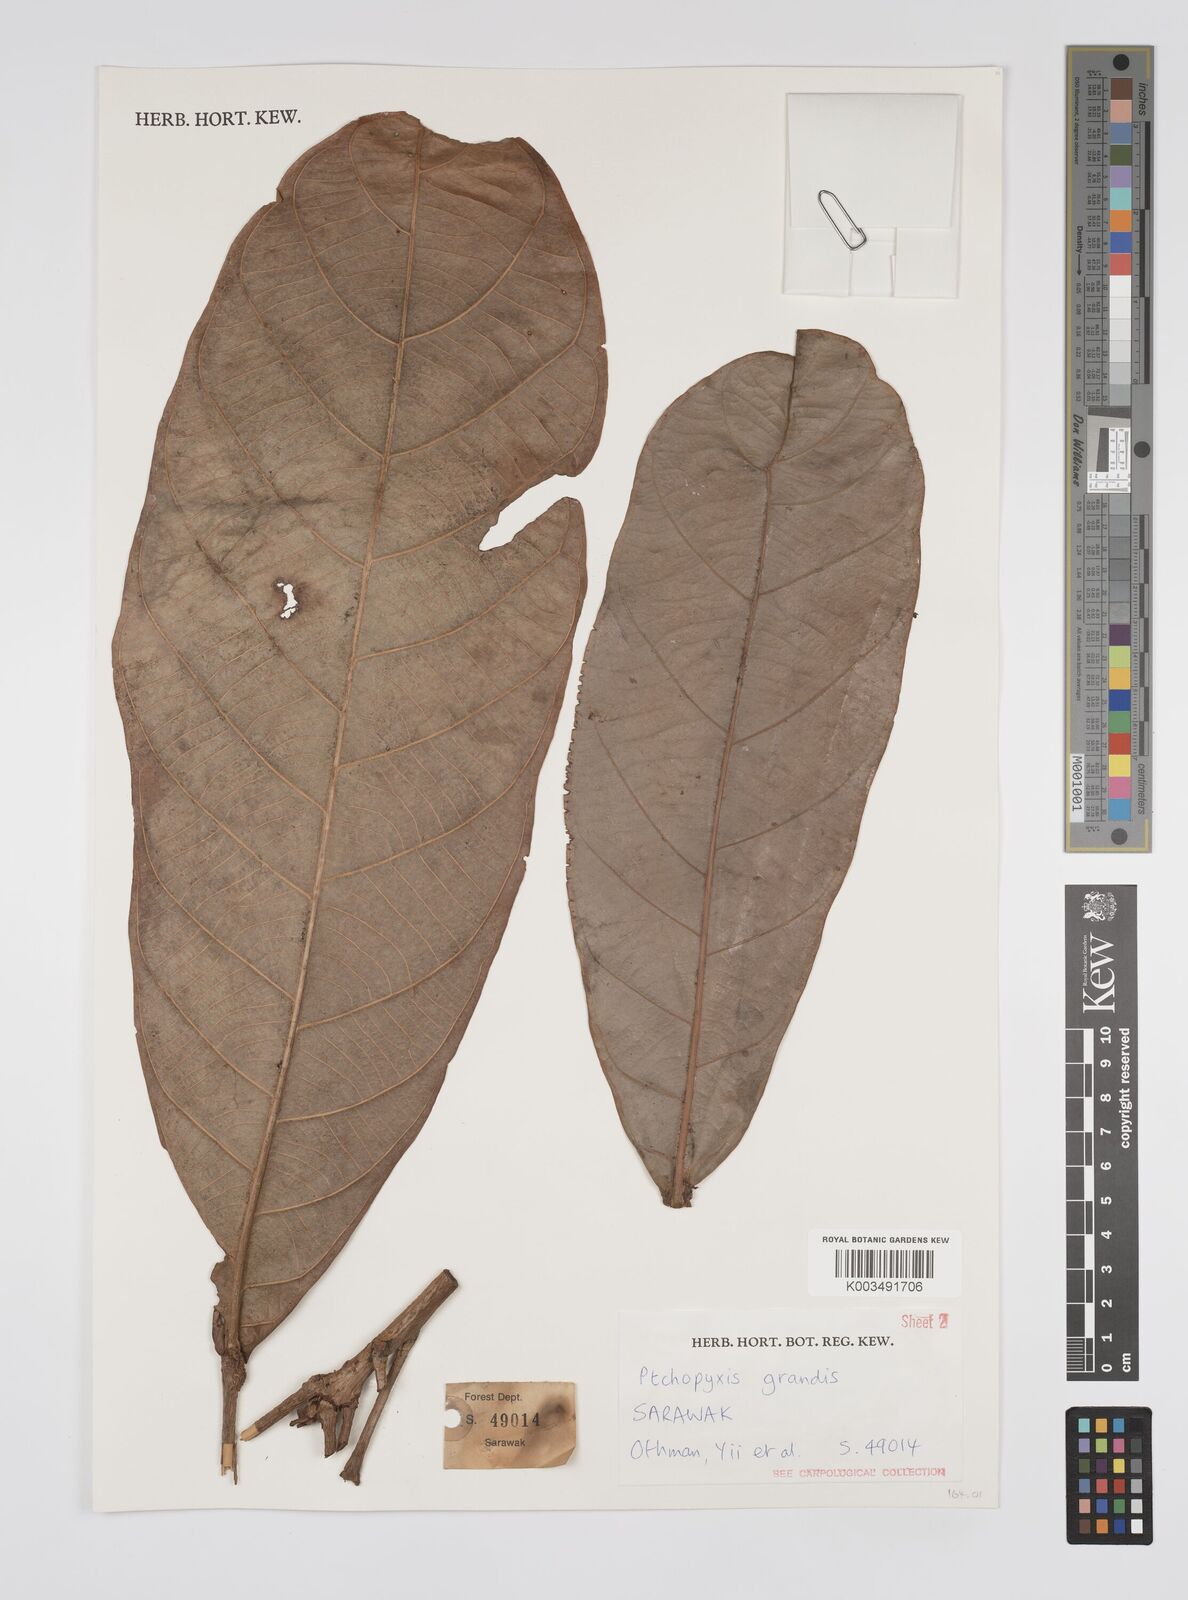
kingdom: Plantae
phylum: Tracheophyta
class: Magnoliopsida
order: Malpighiales
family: Euphorbiaceae
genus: Ptychopyxis
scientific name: Ptychopyxis grandis
